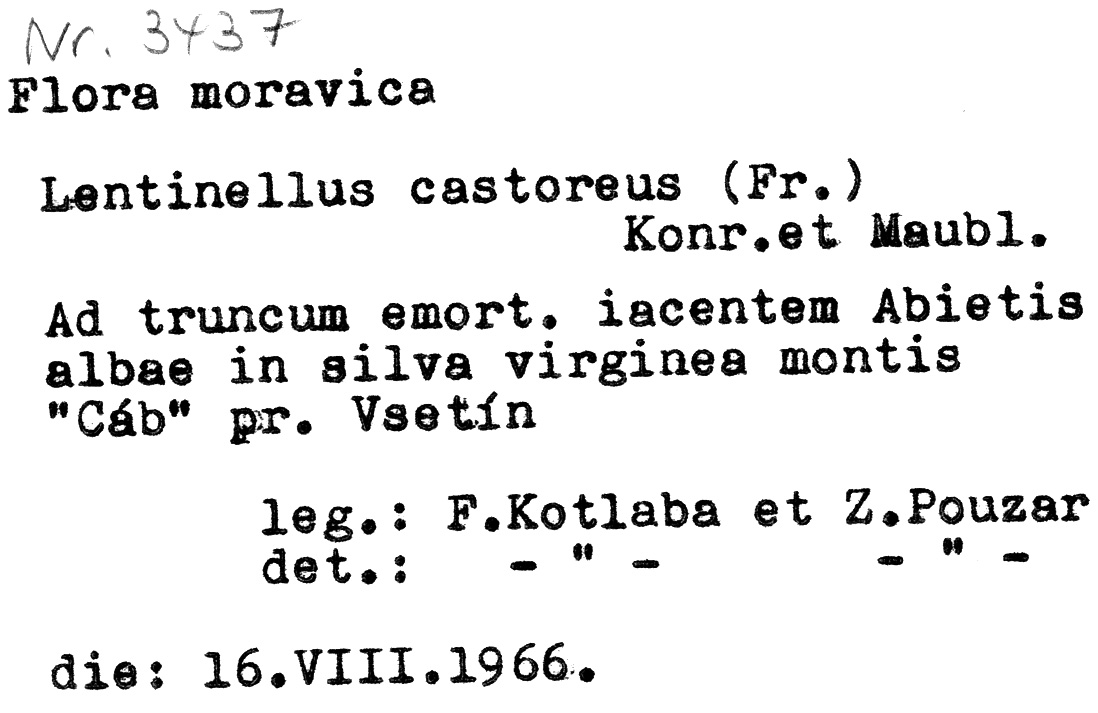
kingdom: Fungi
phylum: Basidiomycota
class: Agaricomycetes
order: Russulales
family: Auriscalpiaceae
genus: Lentinellus
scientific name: Lentinellus castoreus
